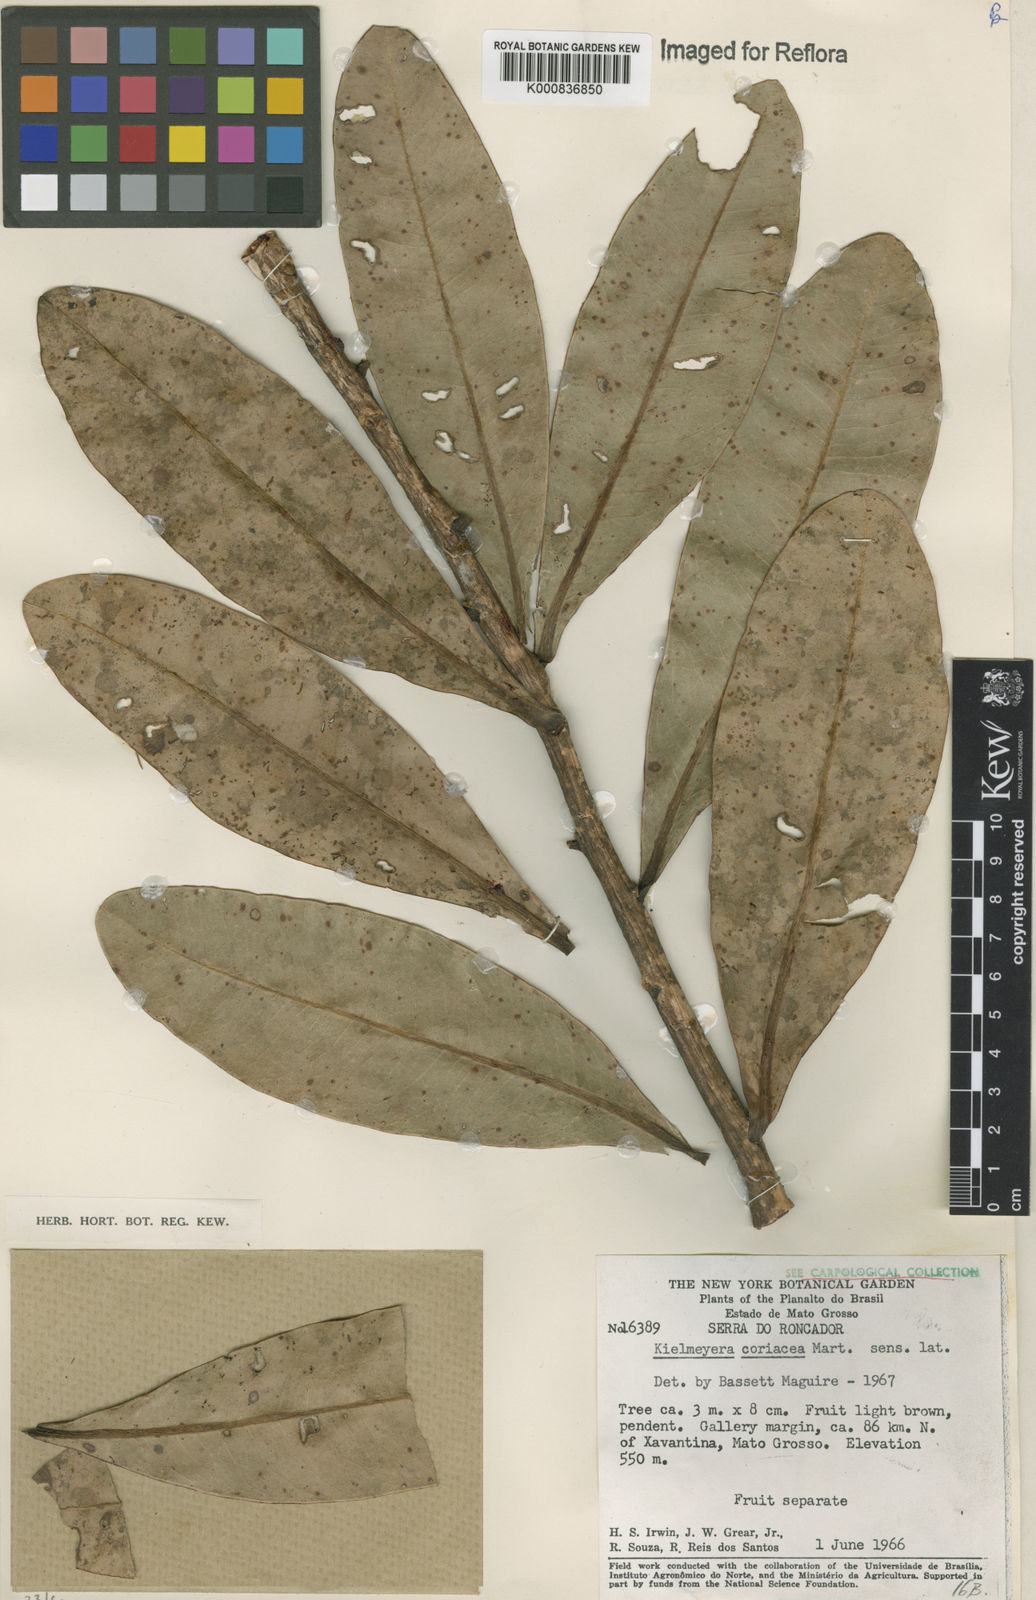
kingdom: Plantae
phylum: Tracheophyta
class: Magnoliopsida
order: Malpighiales
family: Calophyllaceae
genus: Kielmeyera
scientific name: Kielmeyera coriacea
